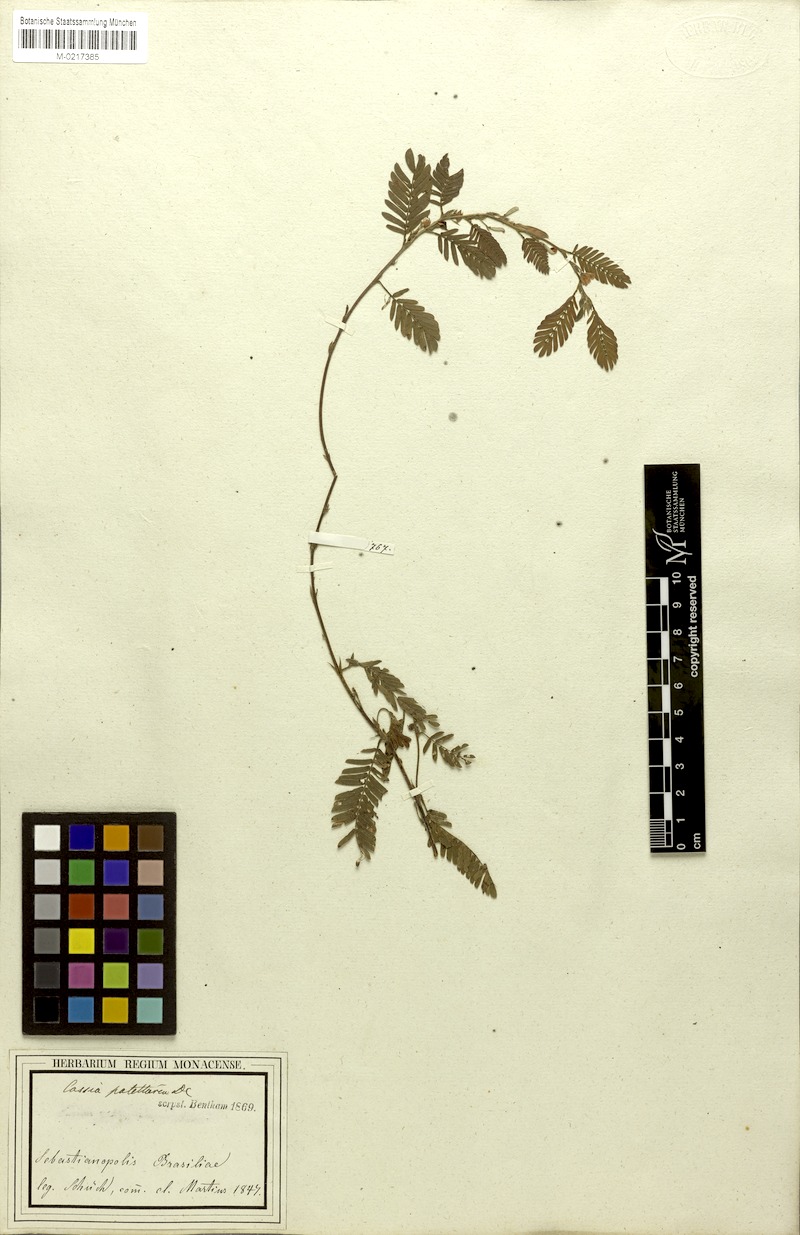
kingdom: Plantae
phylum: Tracheophyta
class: Magnoliopsida
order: Fabales
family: Fabaceae
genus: Chamaecrista
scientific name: Chamaecrista nictitans
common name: Sensitive cassia
